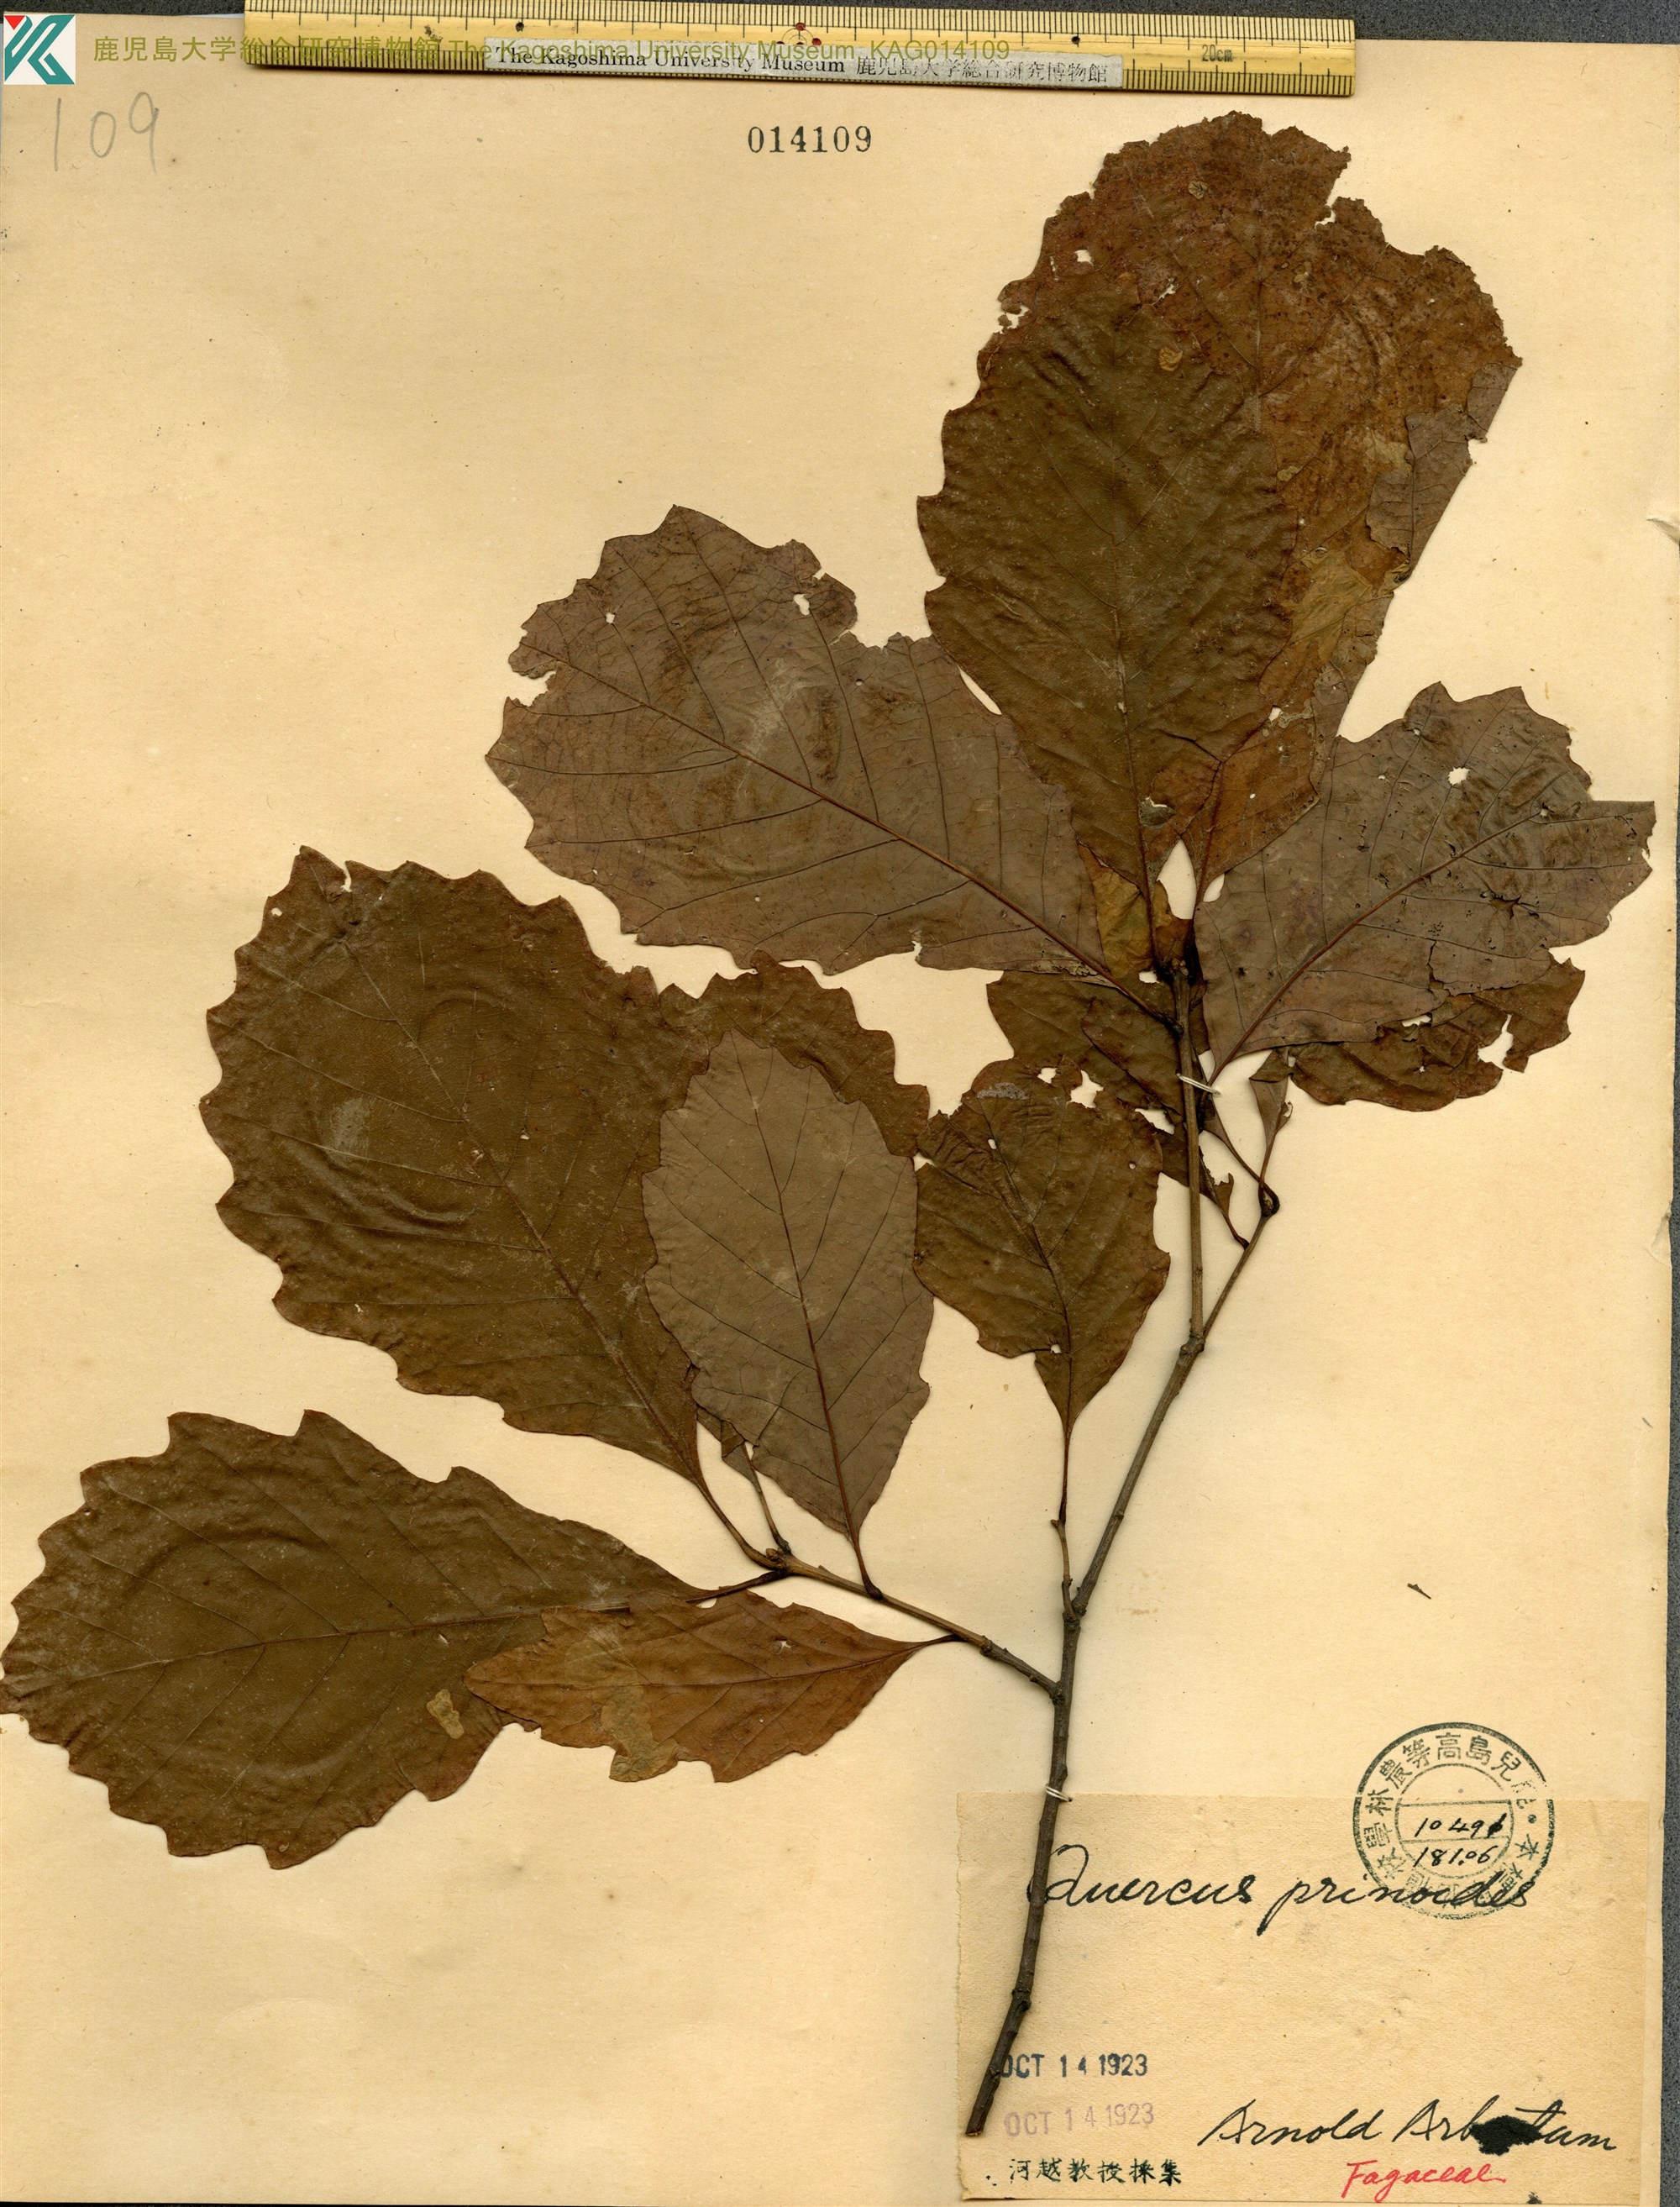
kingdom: Plantae
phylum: Tracheophyta
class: Magnoliopsida
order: Fagales
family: Fagaceae
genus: Quercus
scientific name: Quercus prinoides
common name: Dwarf chinkapin oak
